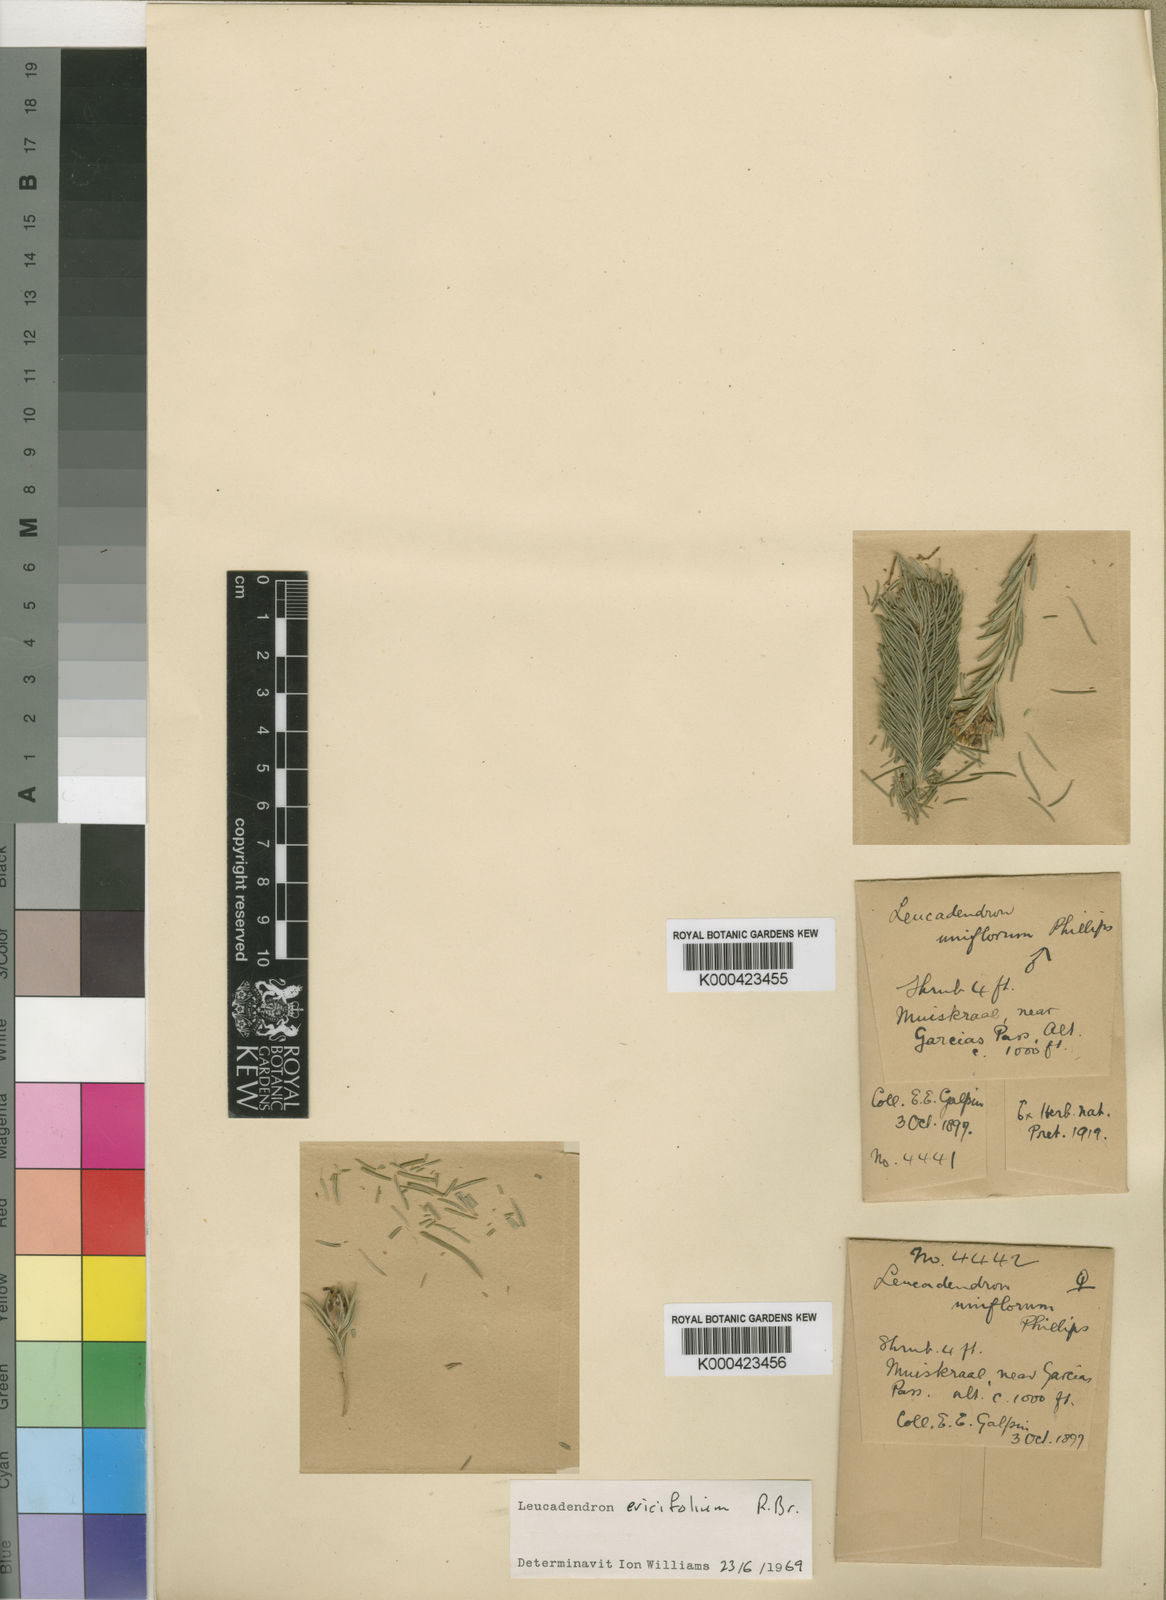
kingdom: Plantae
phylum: Tracheophyta
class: Magnoliopsida
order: Proteales
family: Proteaceae
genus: Leucadendron
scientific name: Leucadendron ericifolium
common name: Erica-leaved conebush
